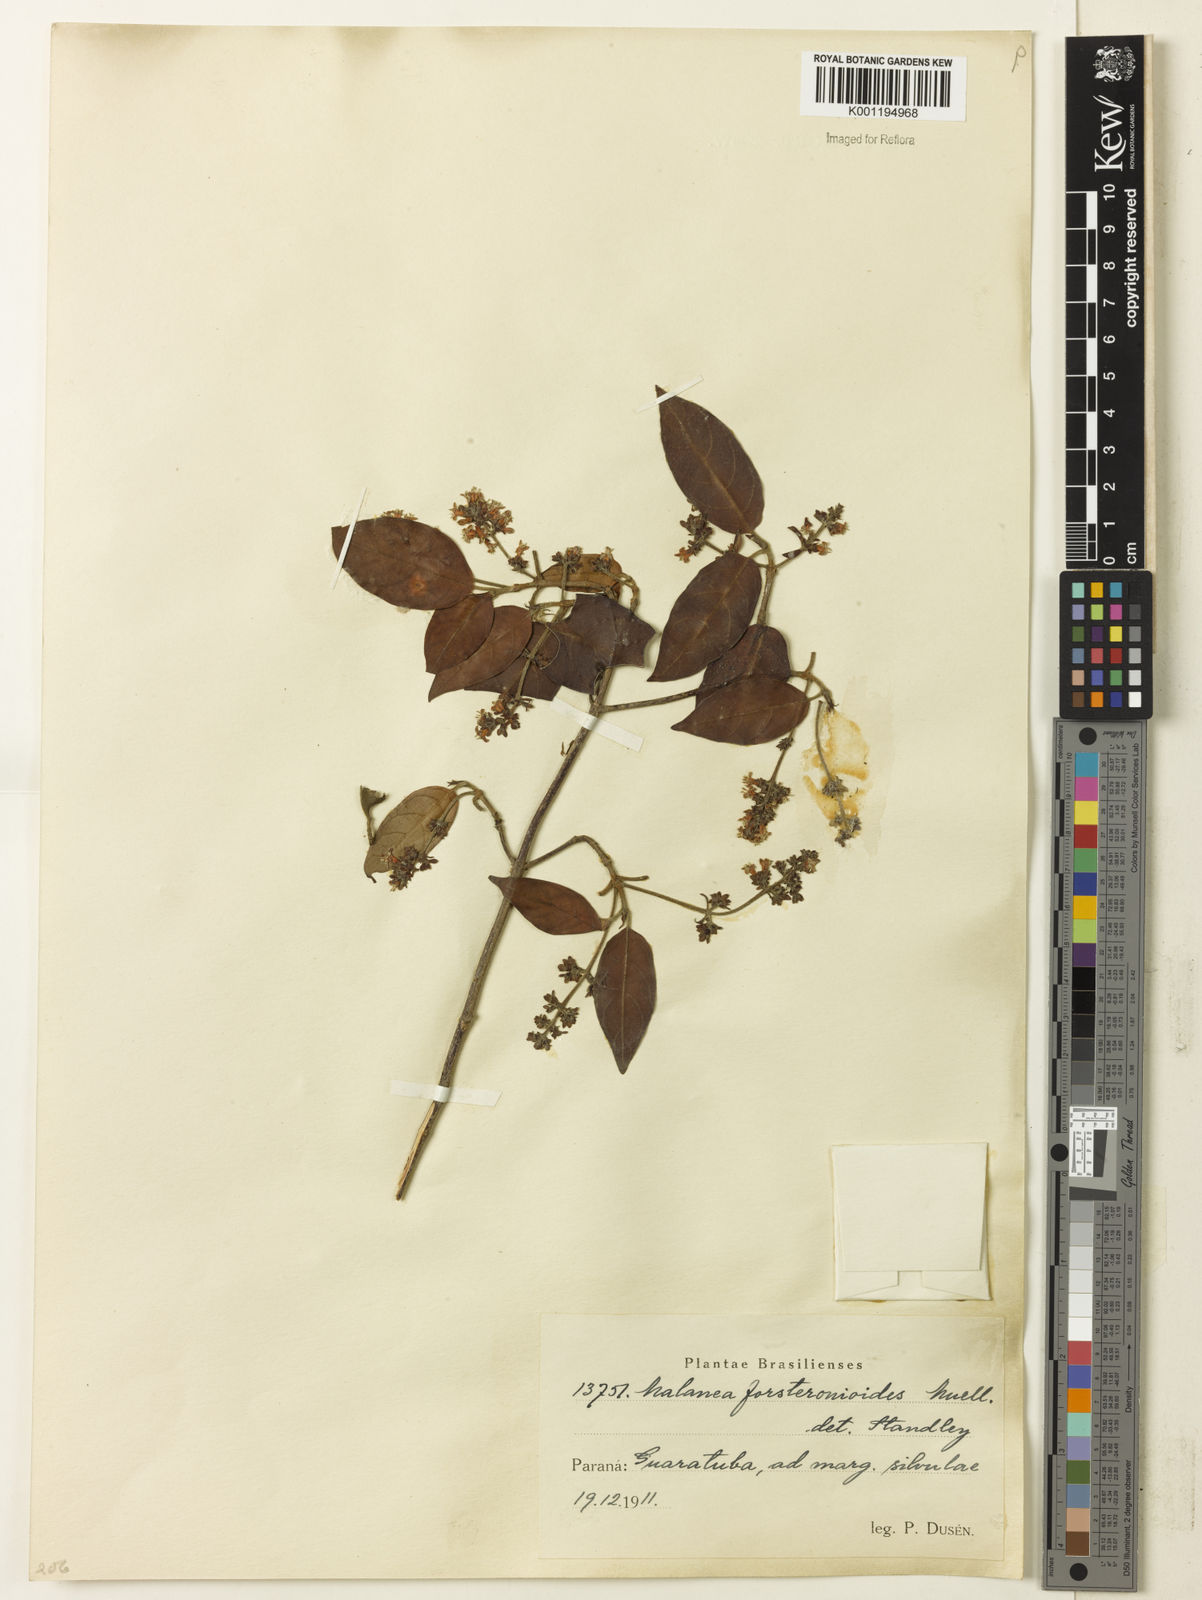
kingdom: Plantae
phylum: Tracheophyta
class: Magnoliopsida
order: Gentianales
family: Rubiaceae
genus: Malanea
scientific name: Malanea
